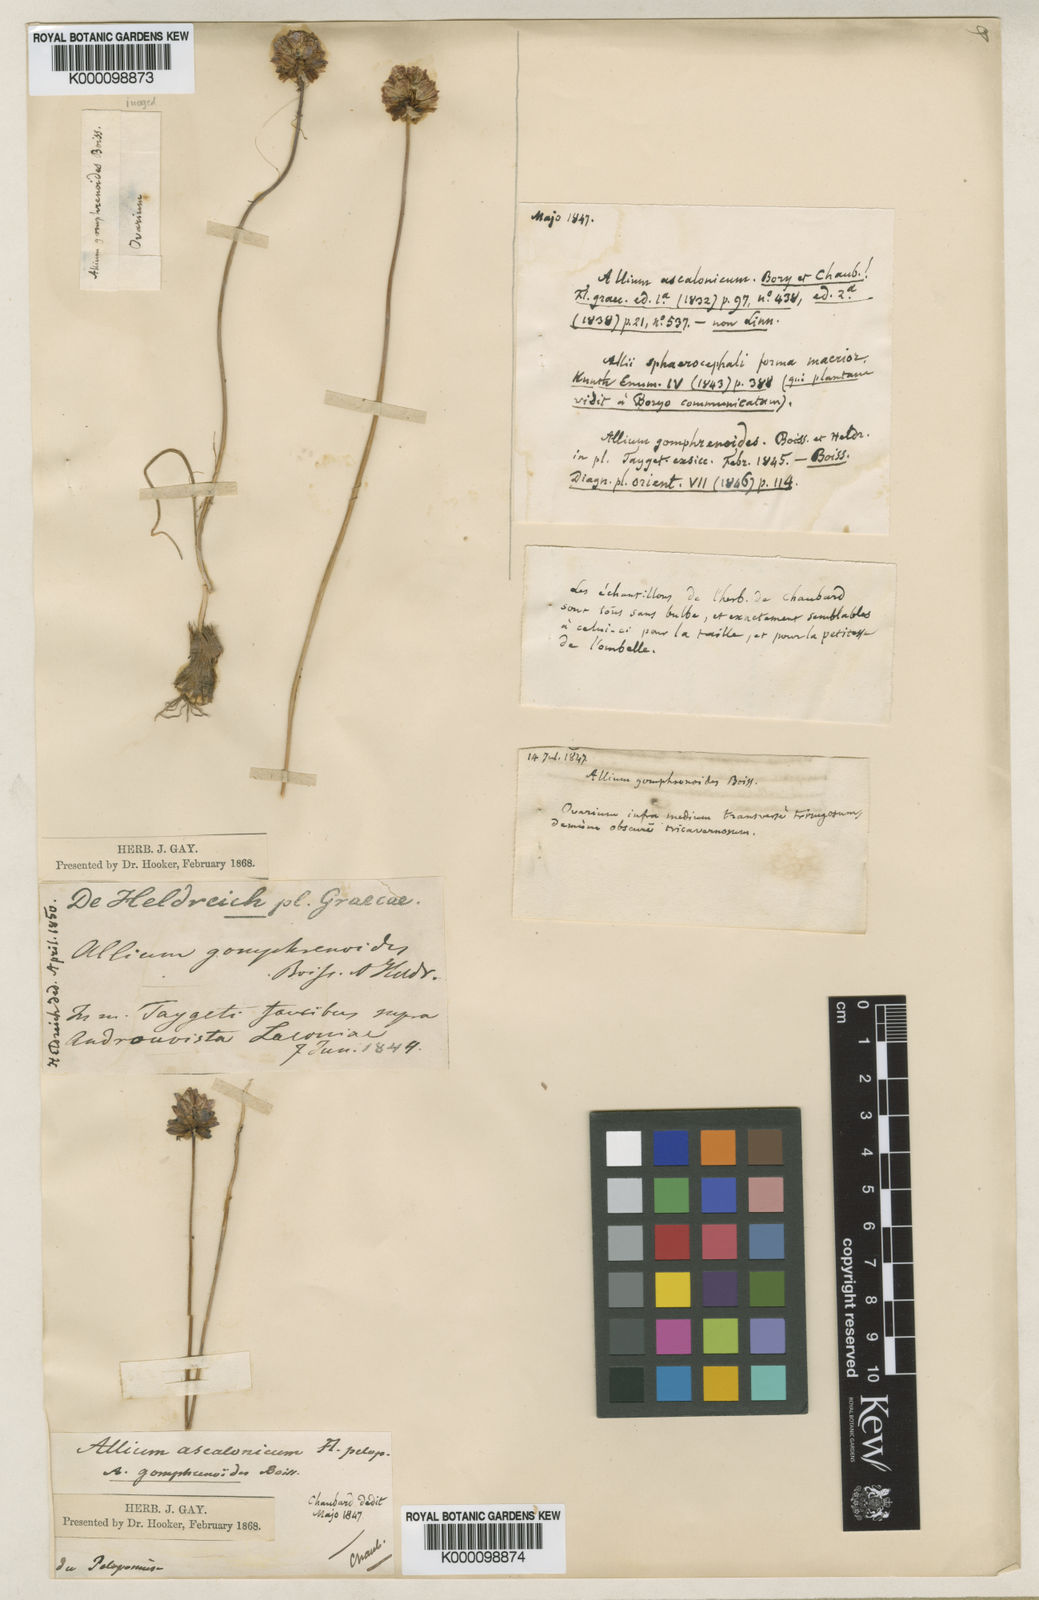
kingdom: Plantae
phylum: Tracheophyta
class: Liliopsida
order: Asparagales
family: Amaryllidaceae
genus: Allium
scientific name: Allium gomphrenoides
